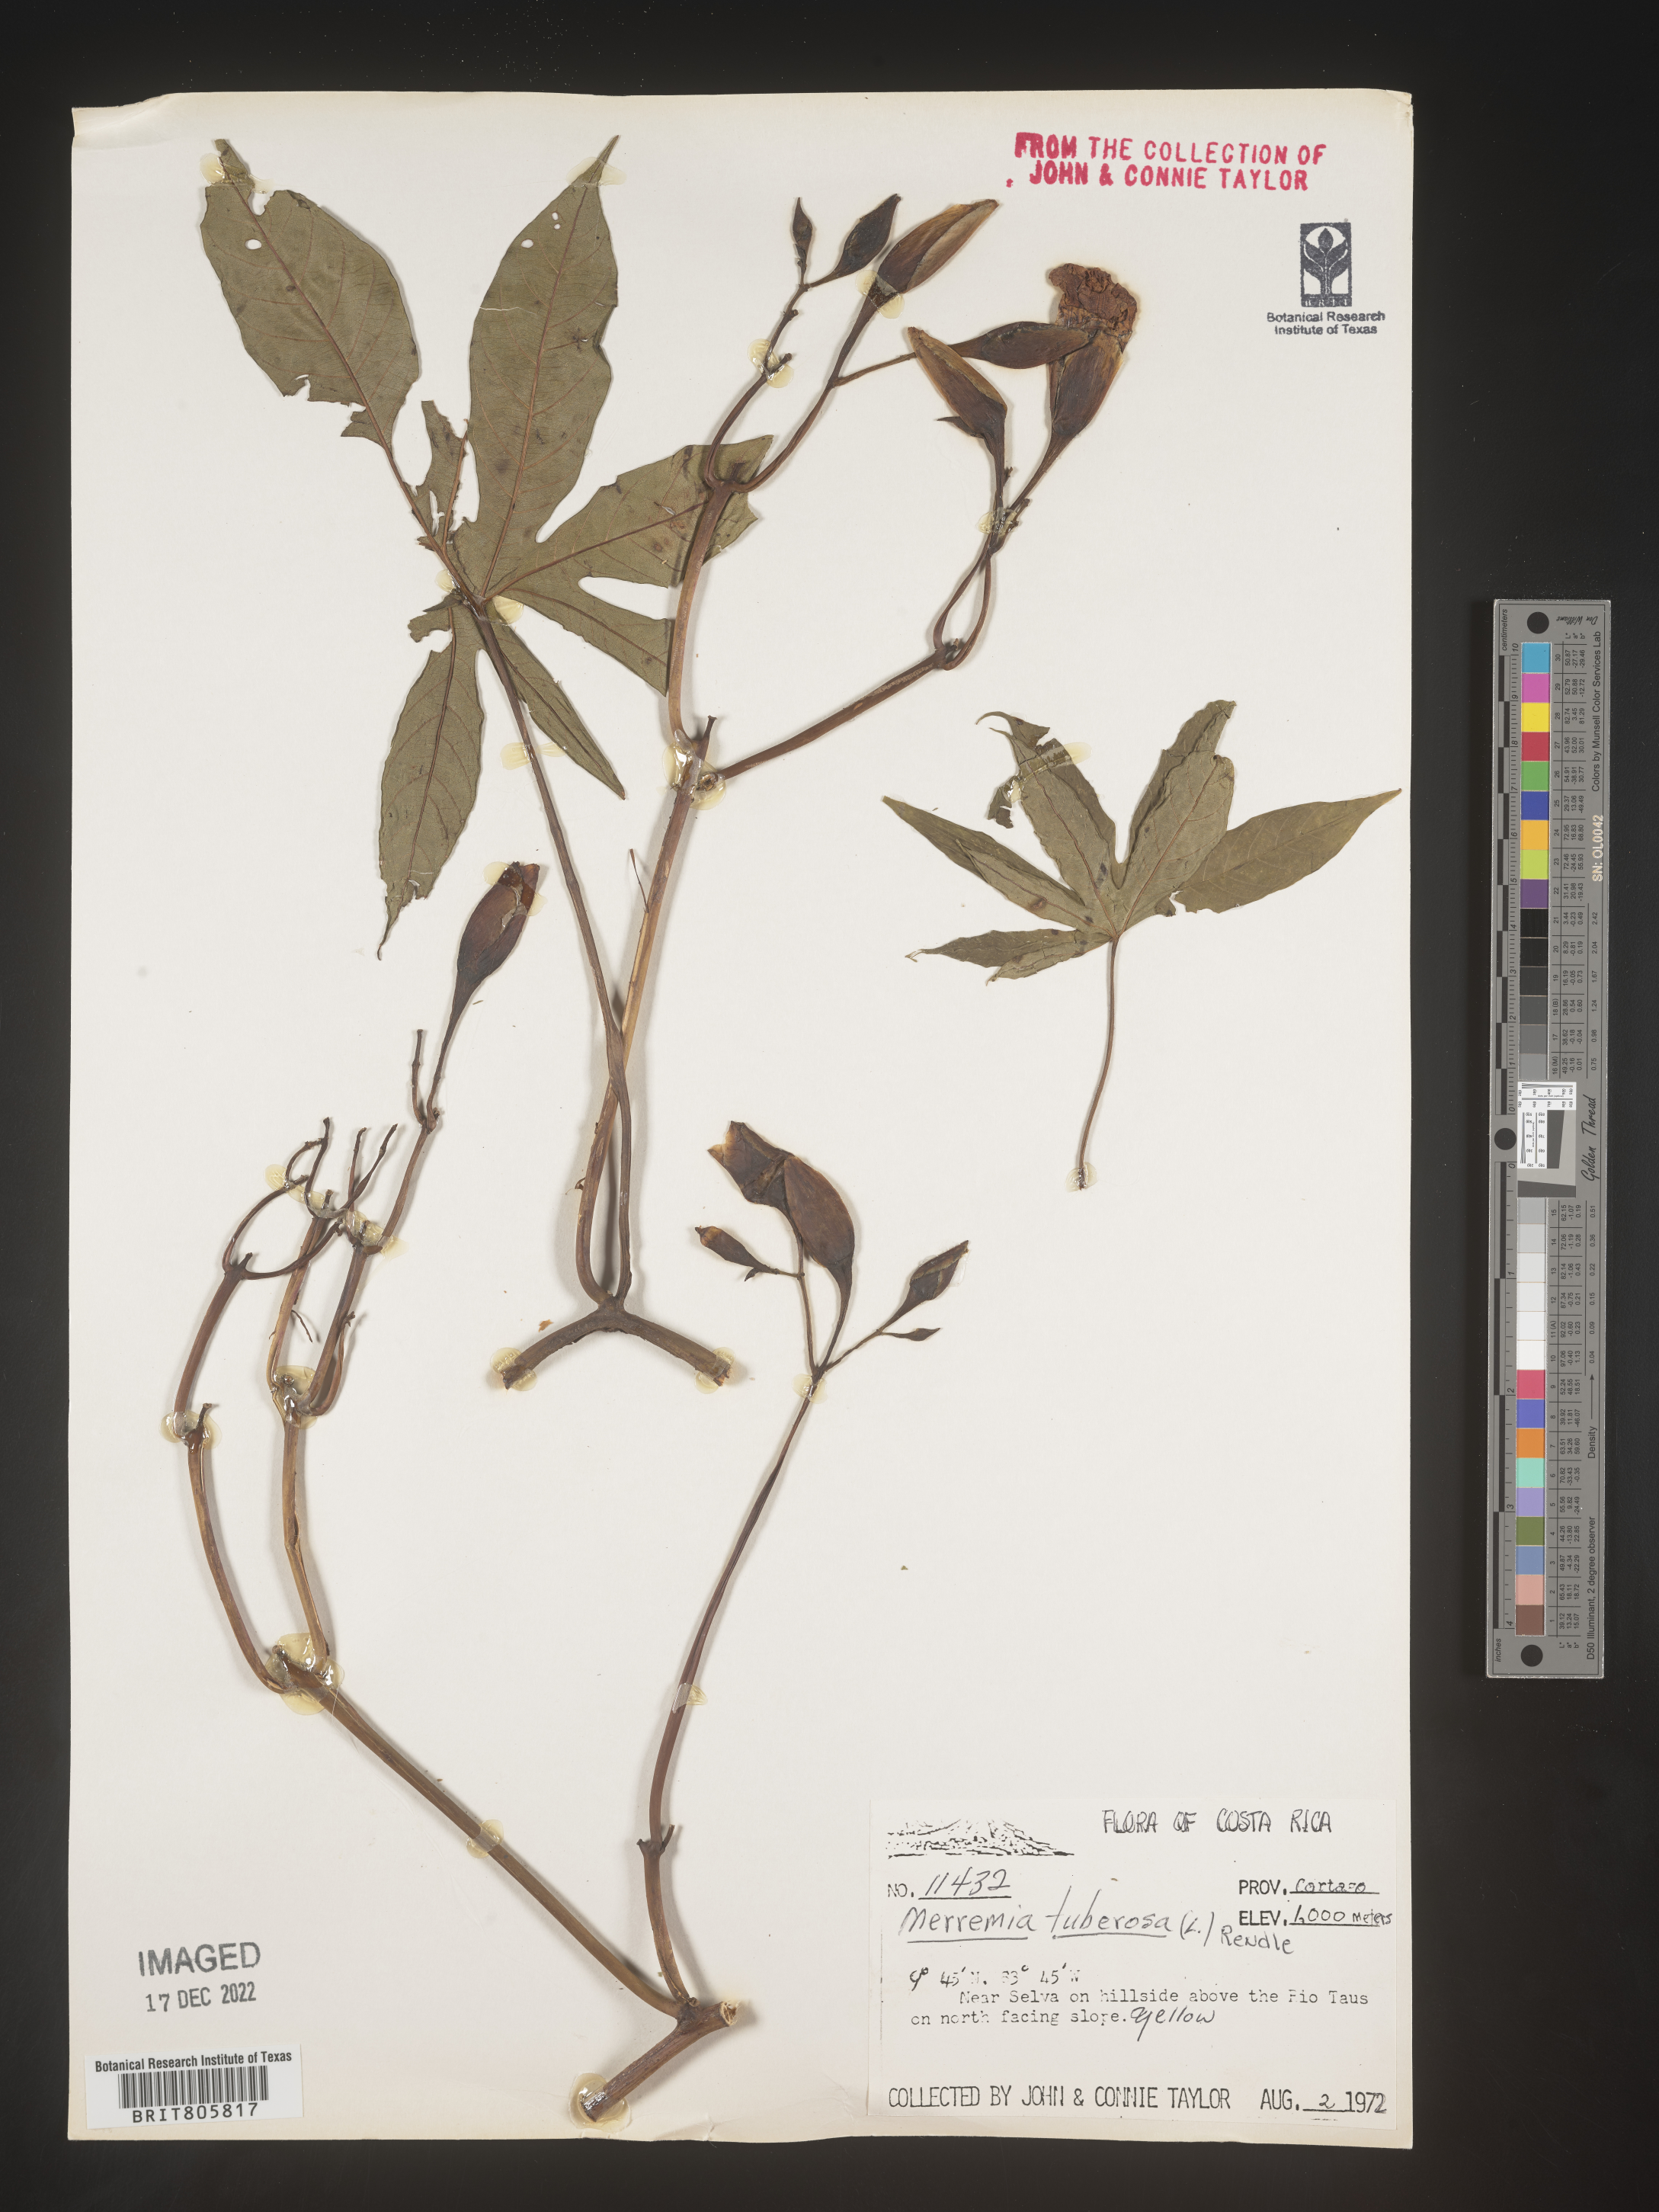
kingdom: Plantae
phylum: Tracheophyta
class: Magnoliopsida
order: Solanales
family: Convolvulaceae
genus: Merremia
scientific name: Merremia
